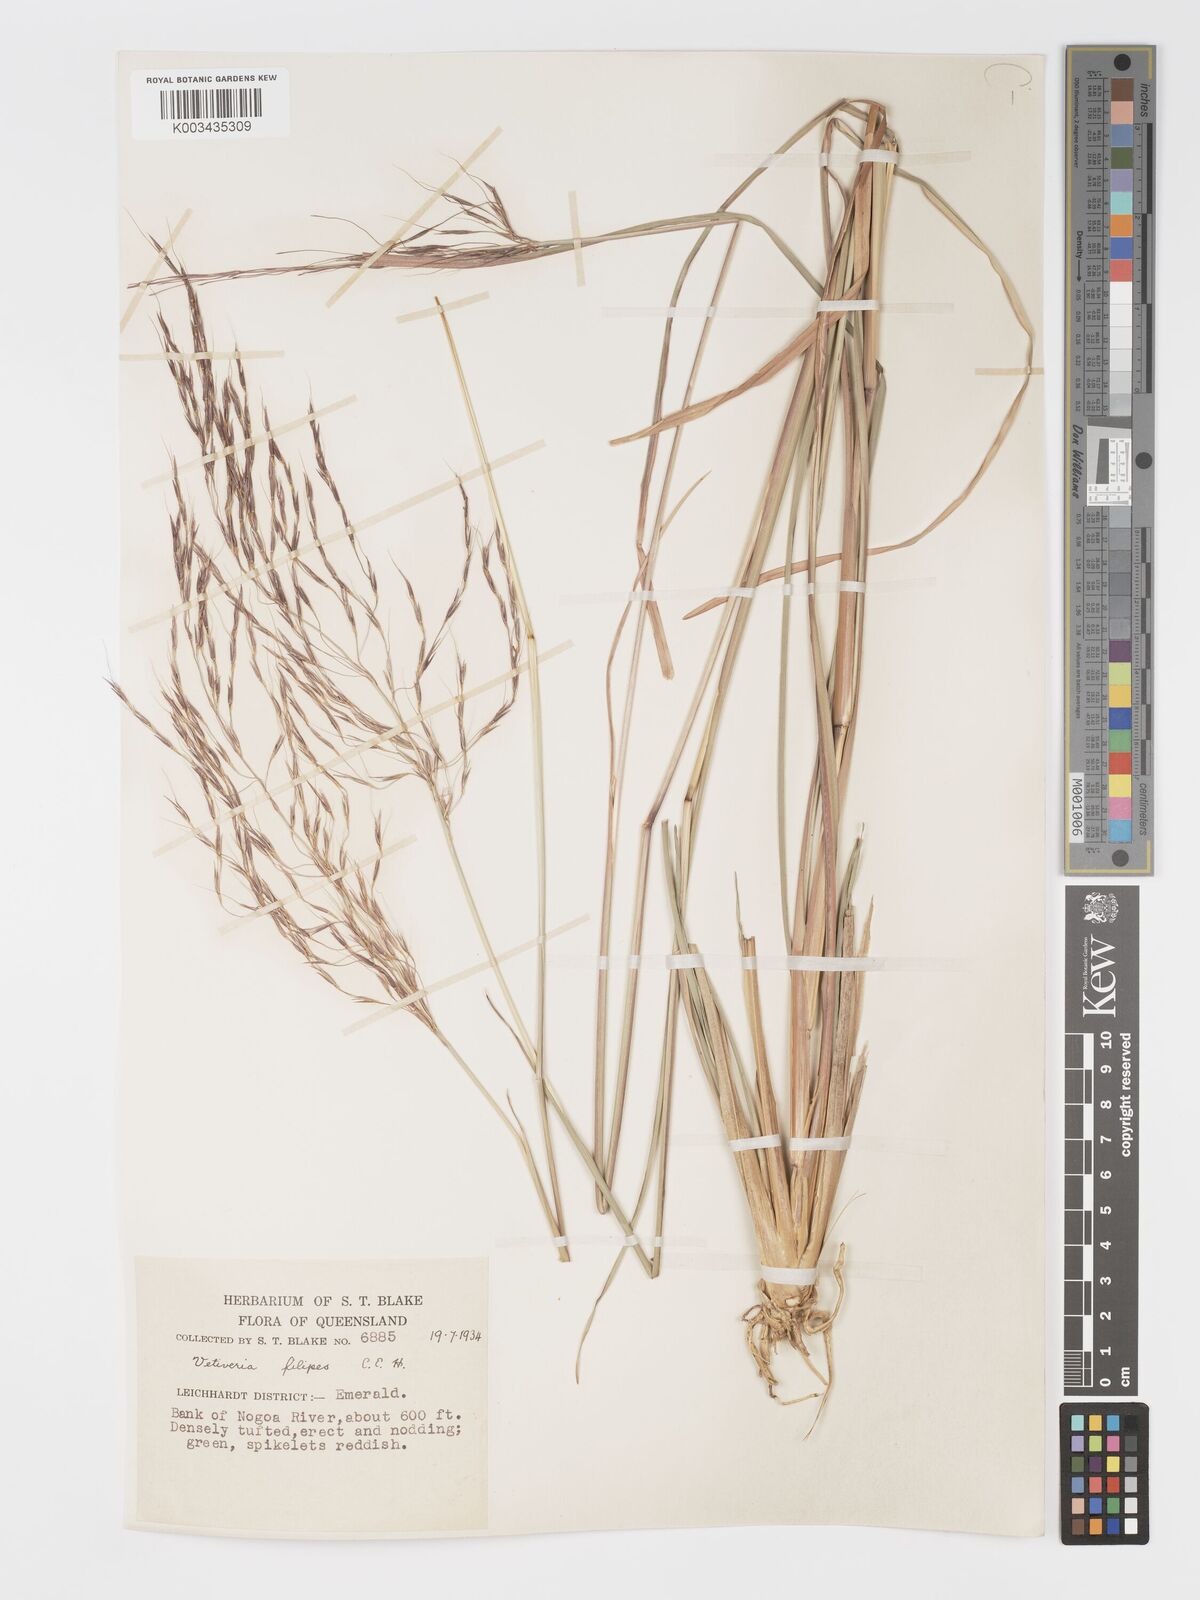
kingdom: Plantae
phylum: Tracheophyta
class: Liliopsida
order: Poales
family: Poaceae
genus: Chrysopogon
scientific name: Chrysopogon filipes
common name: Australian vetiver
